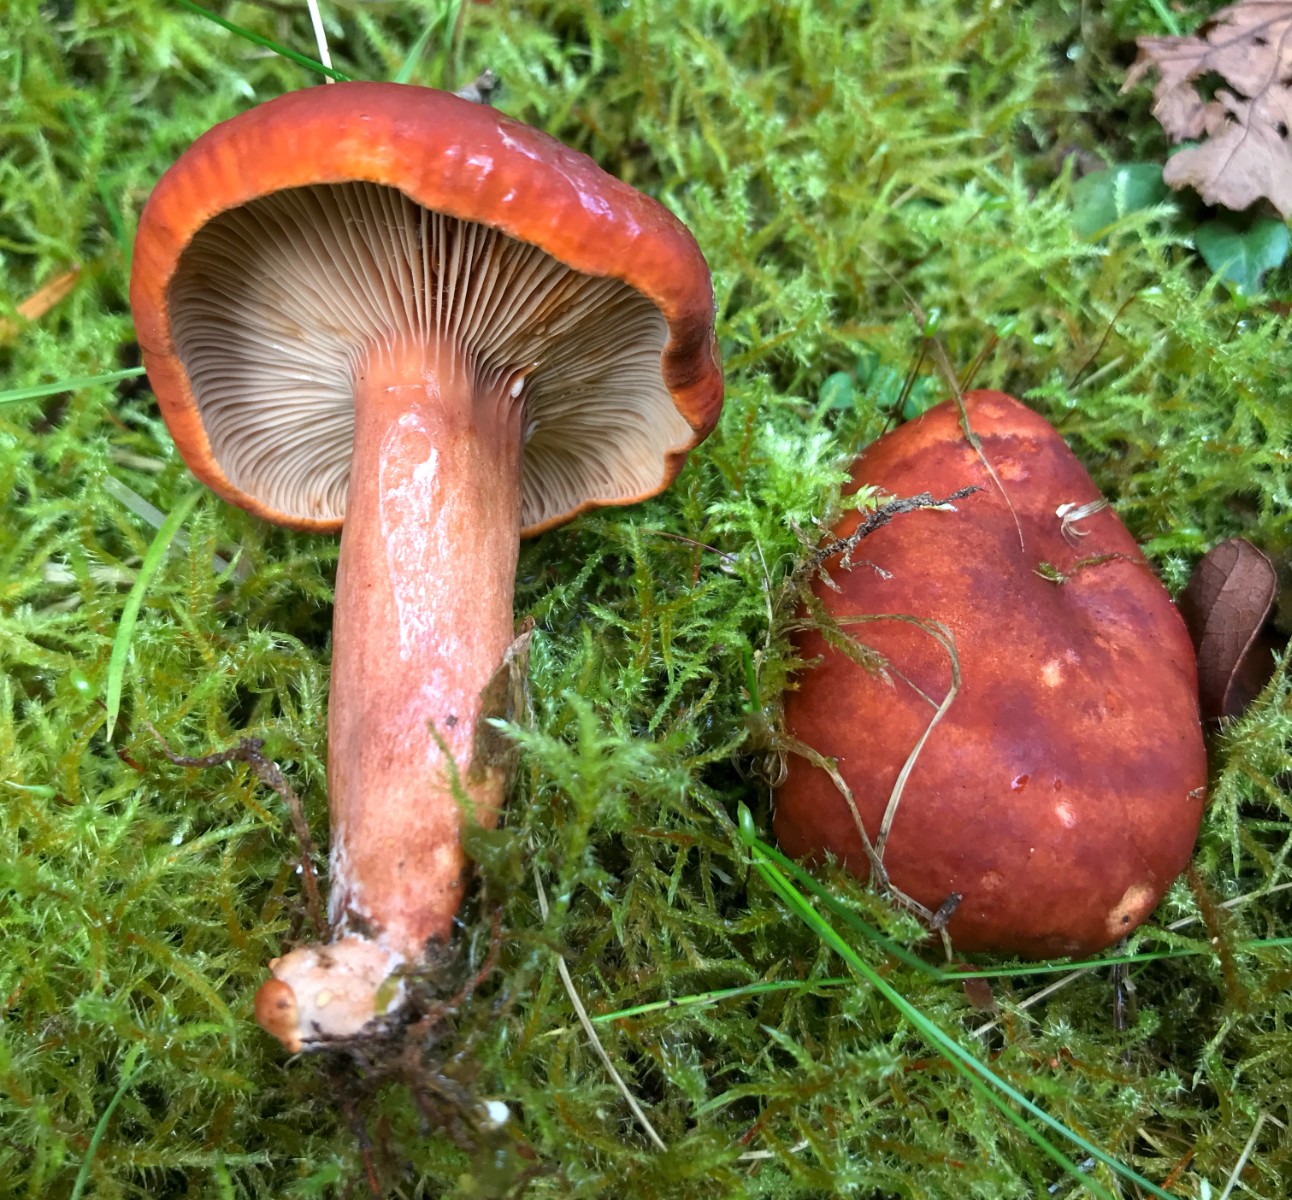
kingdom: Fungi
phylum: Basidiomycota
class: Agaricomycetes
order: Russulales
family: Russulaceae
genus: Lactarius
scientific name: Lactarius fulvissimus
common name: ræve-mælkehat
